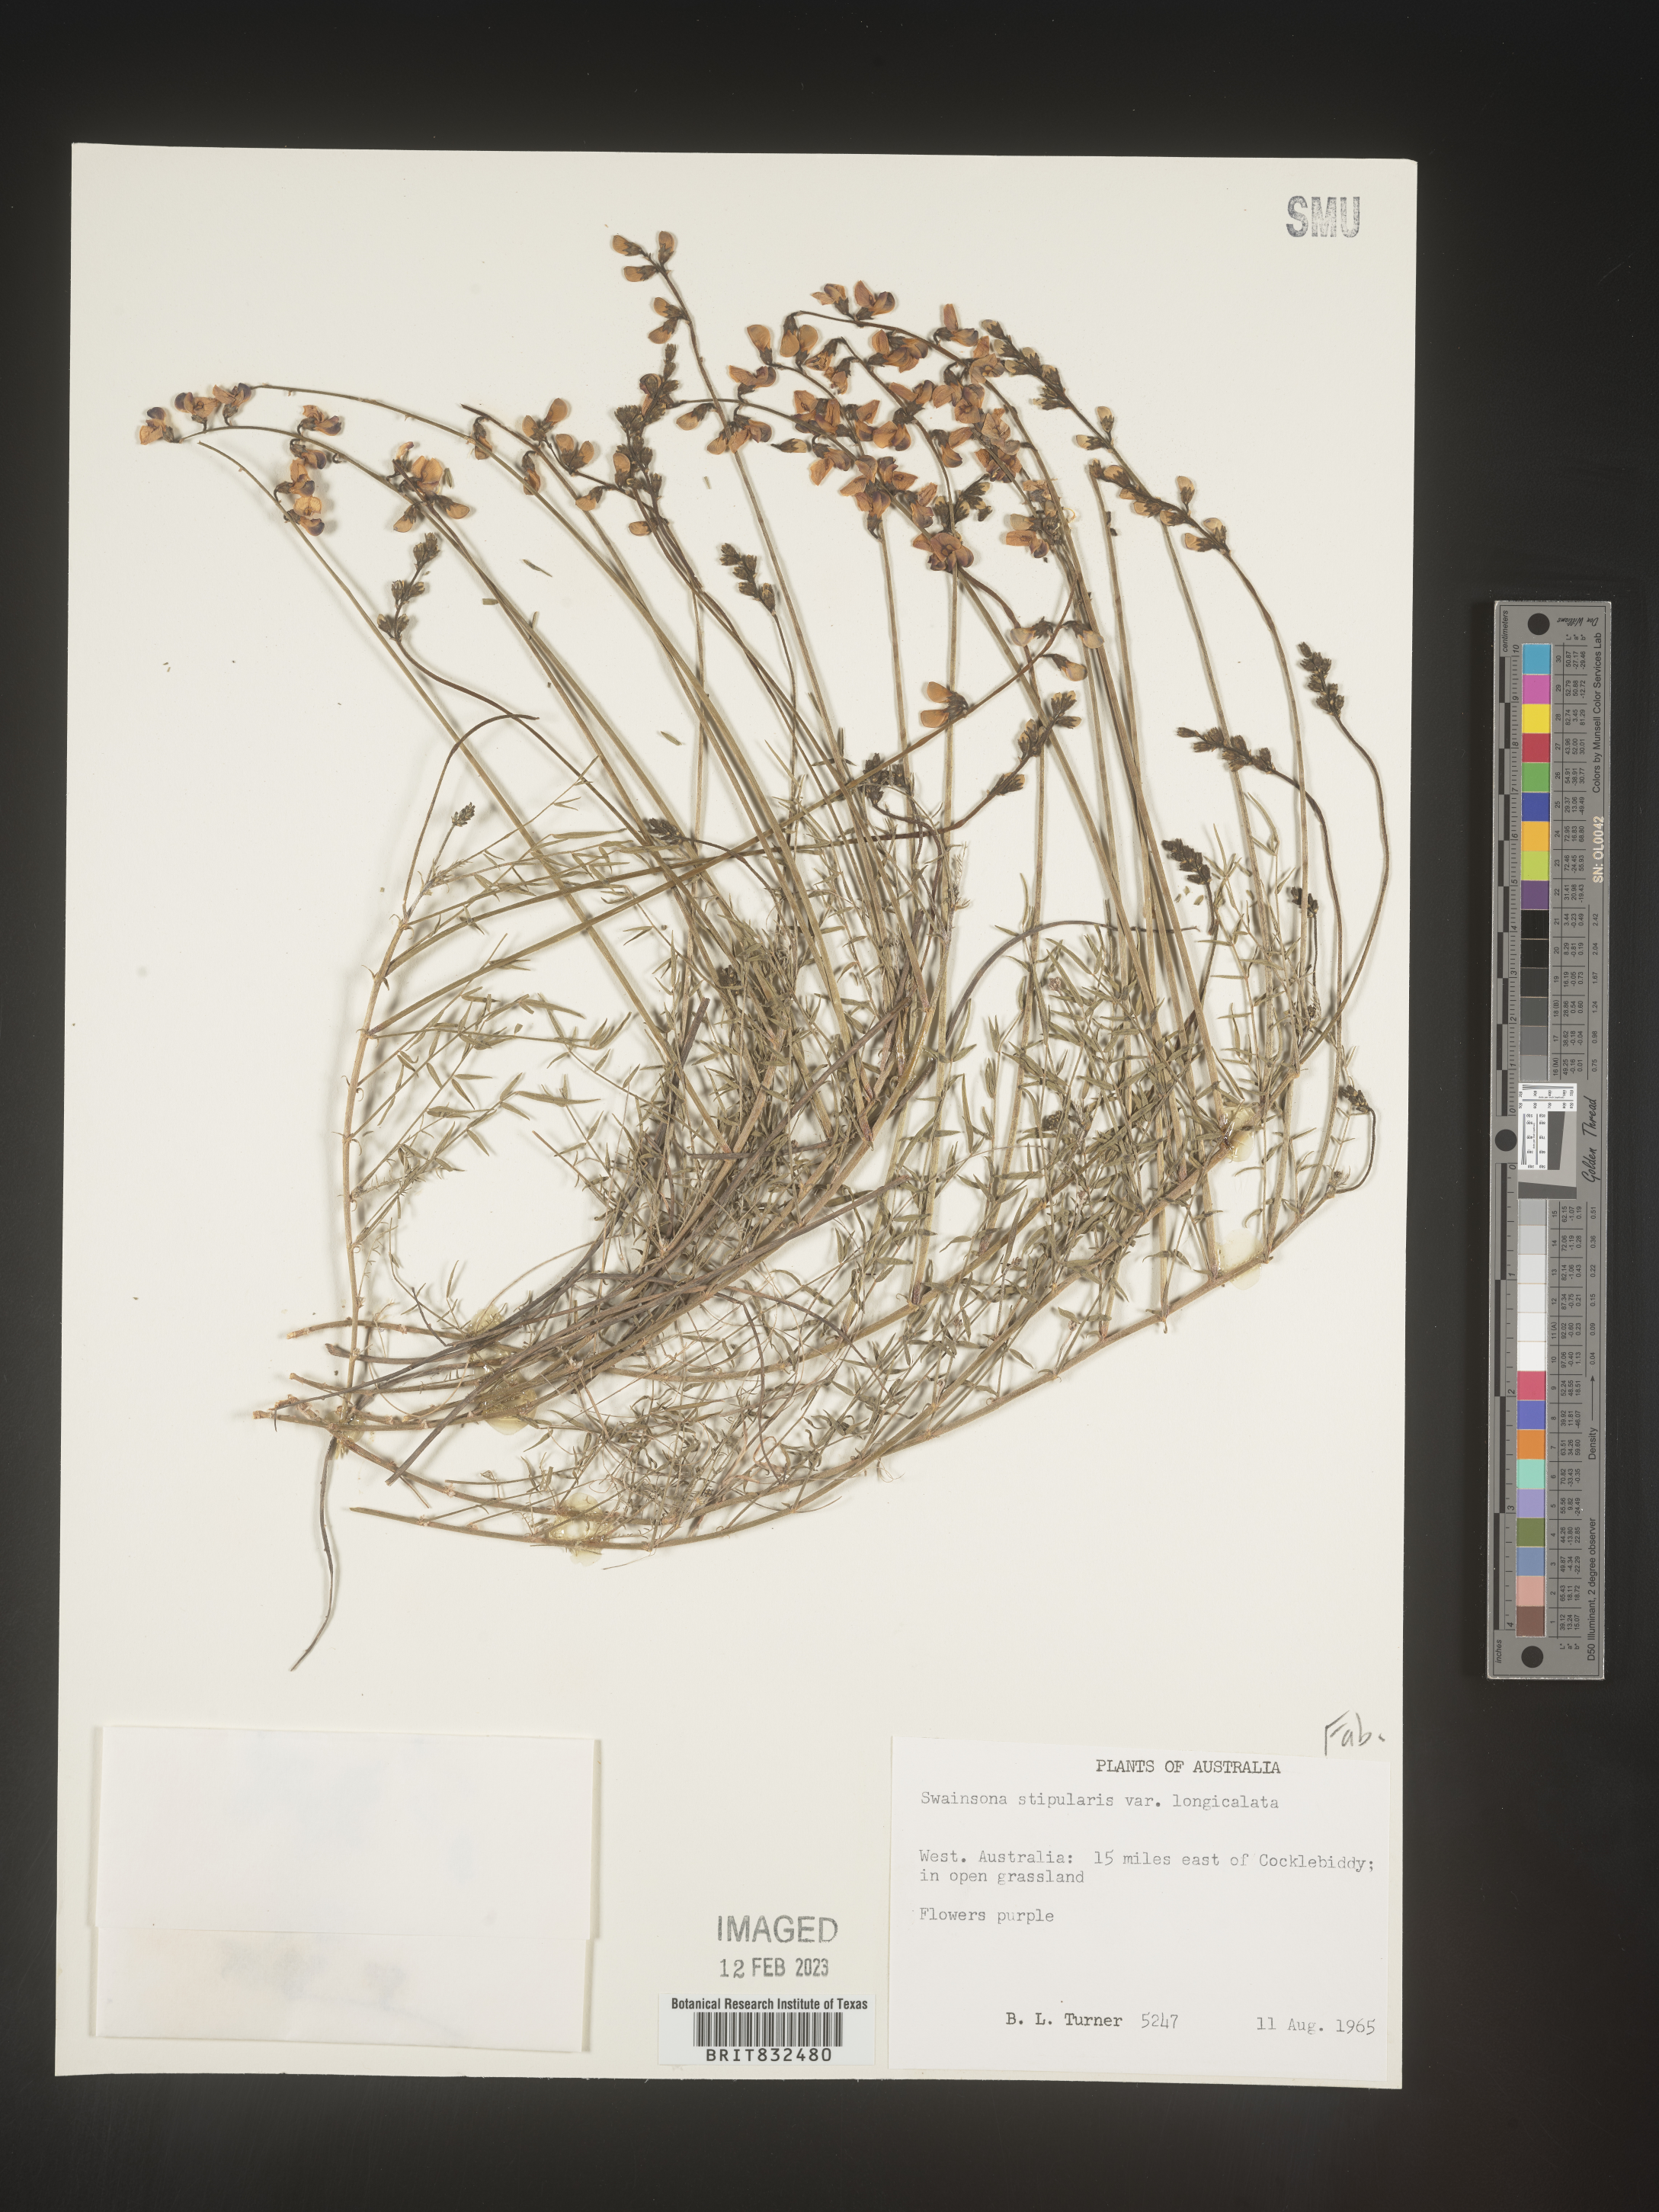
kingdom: Plantae
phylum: Tracheophyta
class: Magnoliopsida
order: Fabales
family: Fabaceae
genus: Swainsona
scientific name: Swainsona
